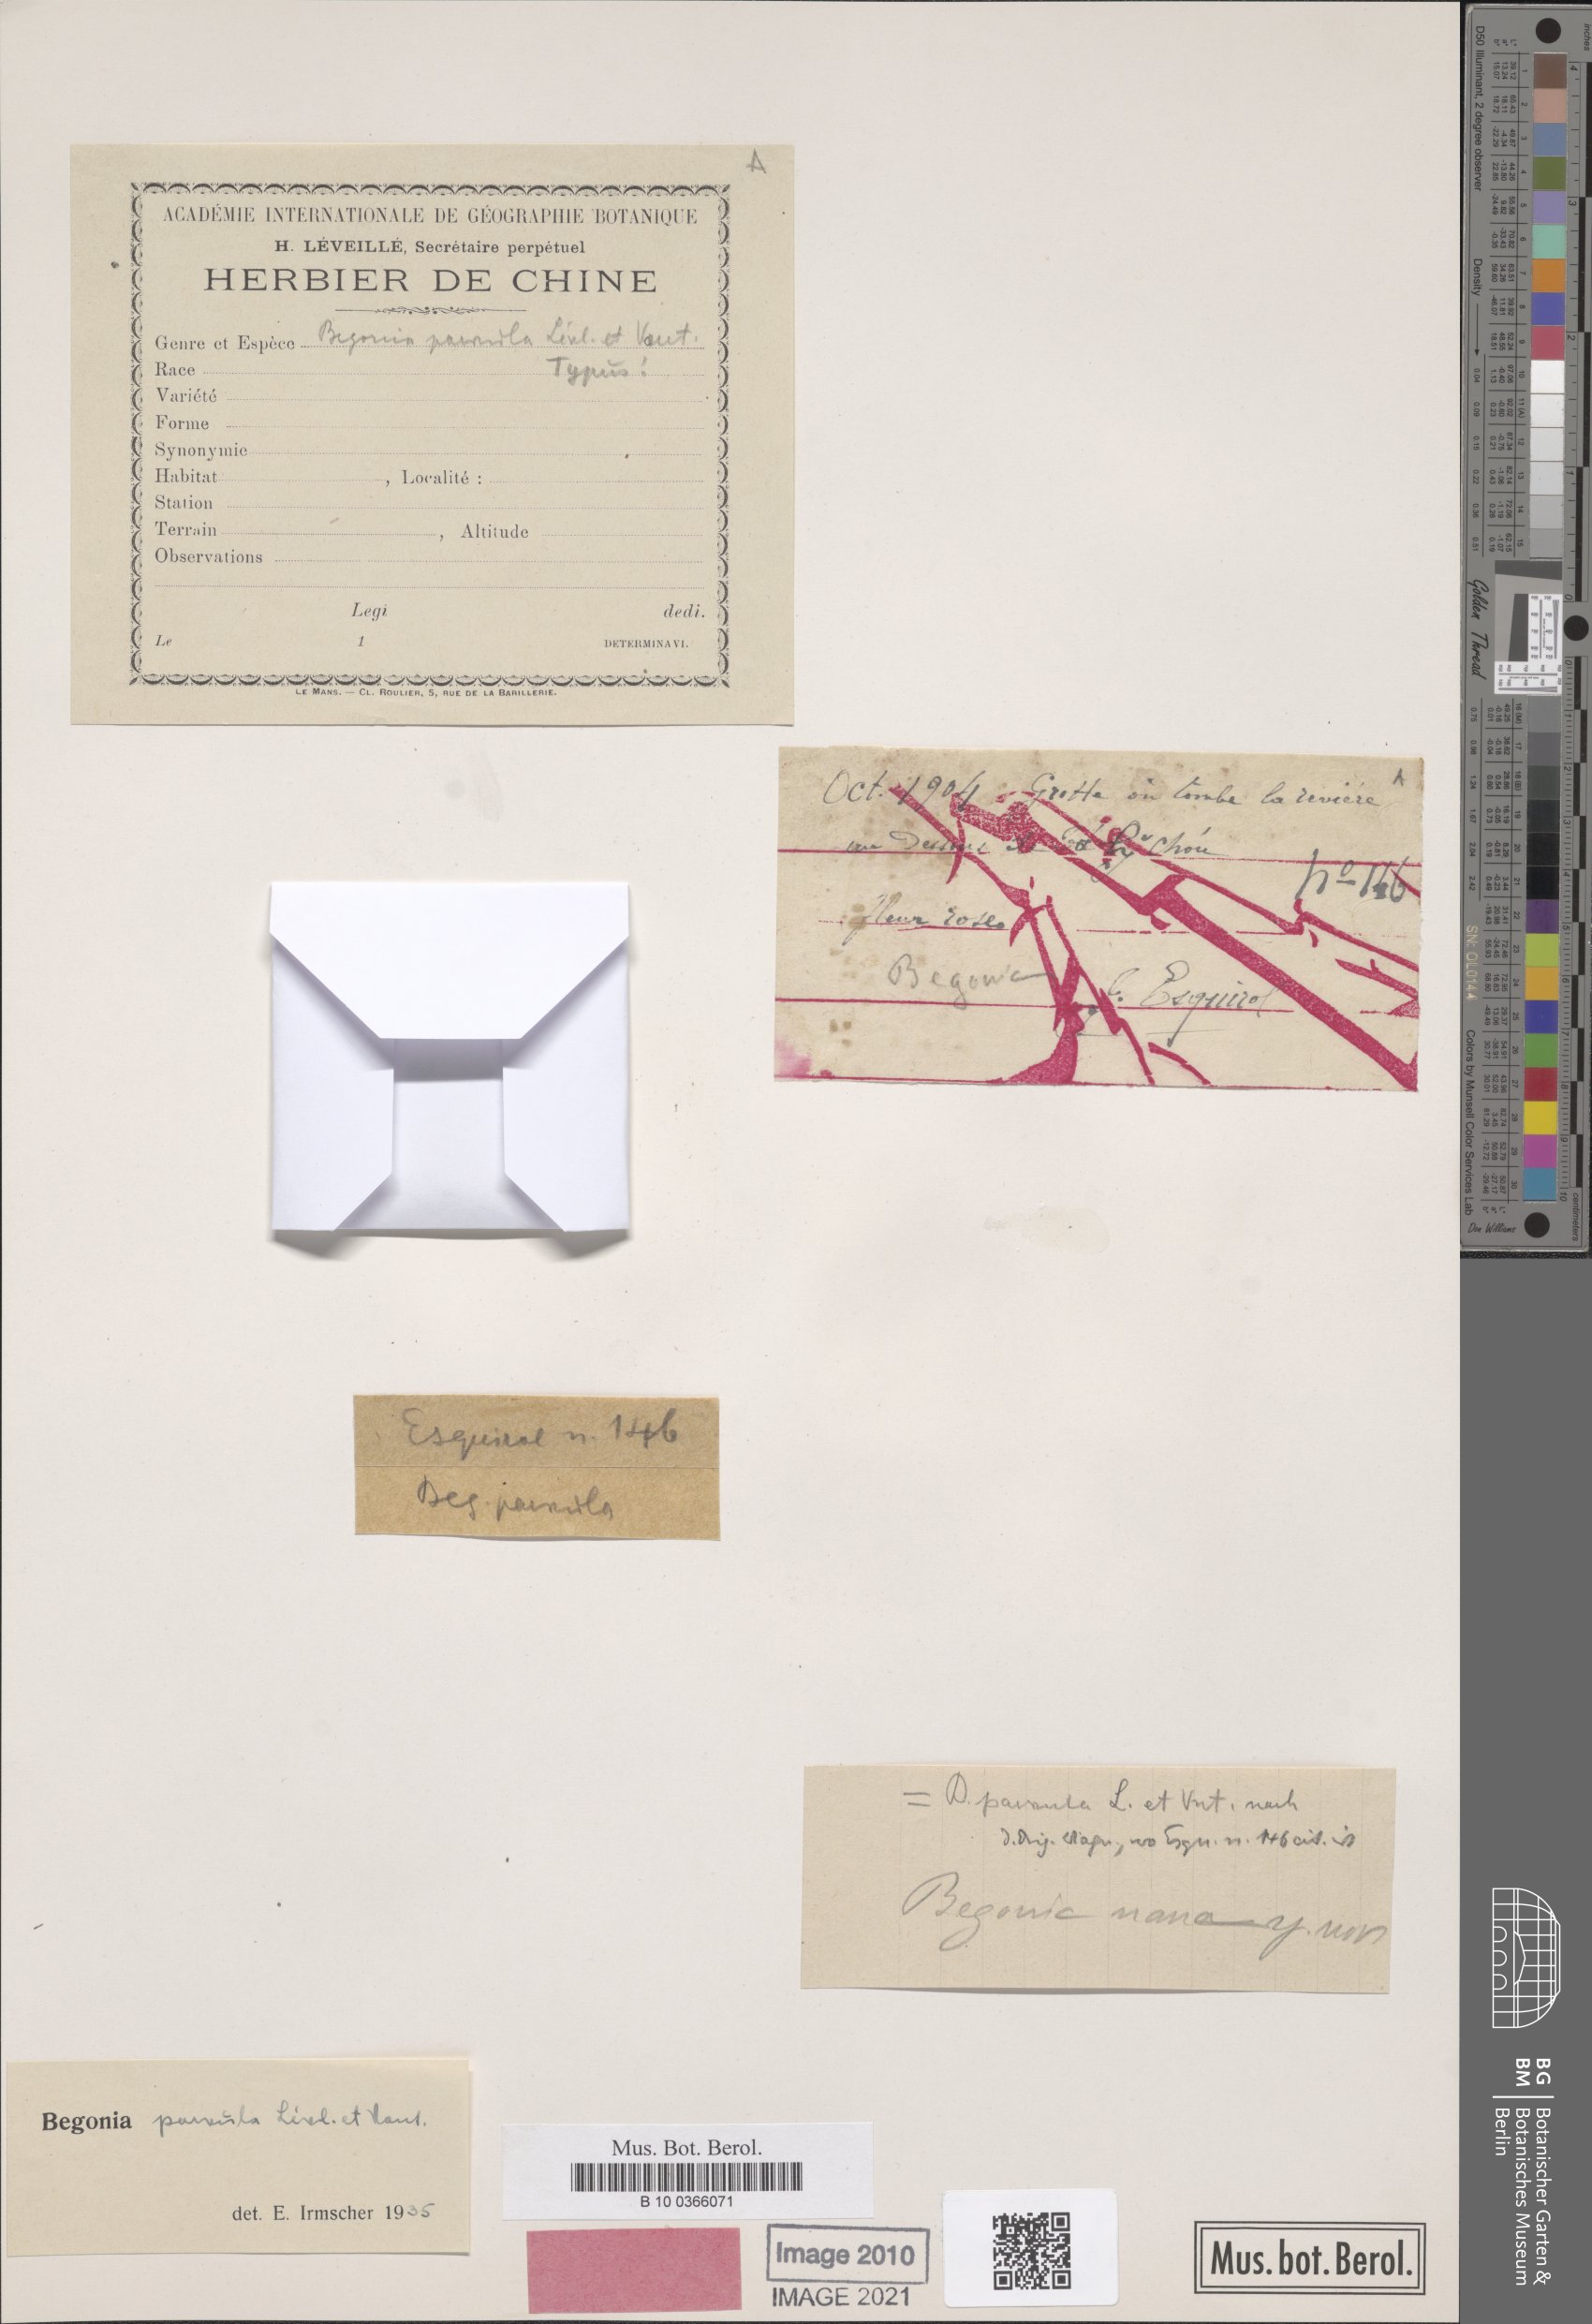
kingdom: Plantae
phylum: Tracheophyta
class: Magnoliopsida
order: Cucurbitales
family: Begoniaceae
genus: Begonia
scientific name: Begonia parvula
